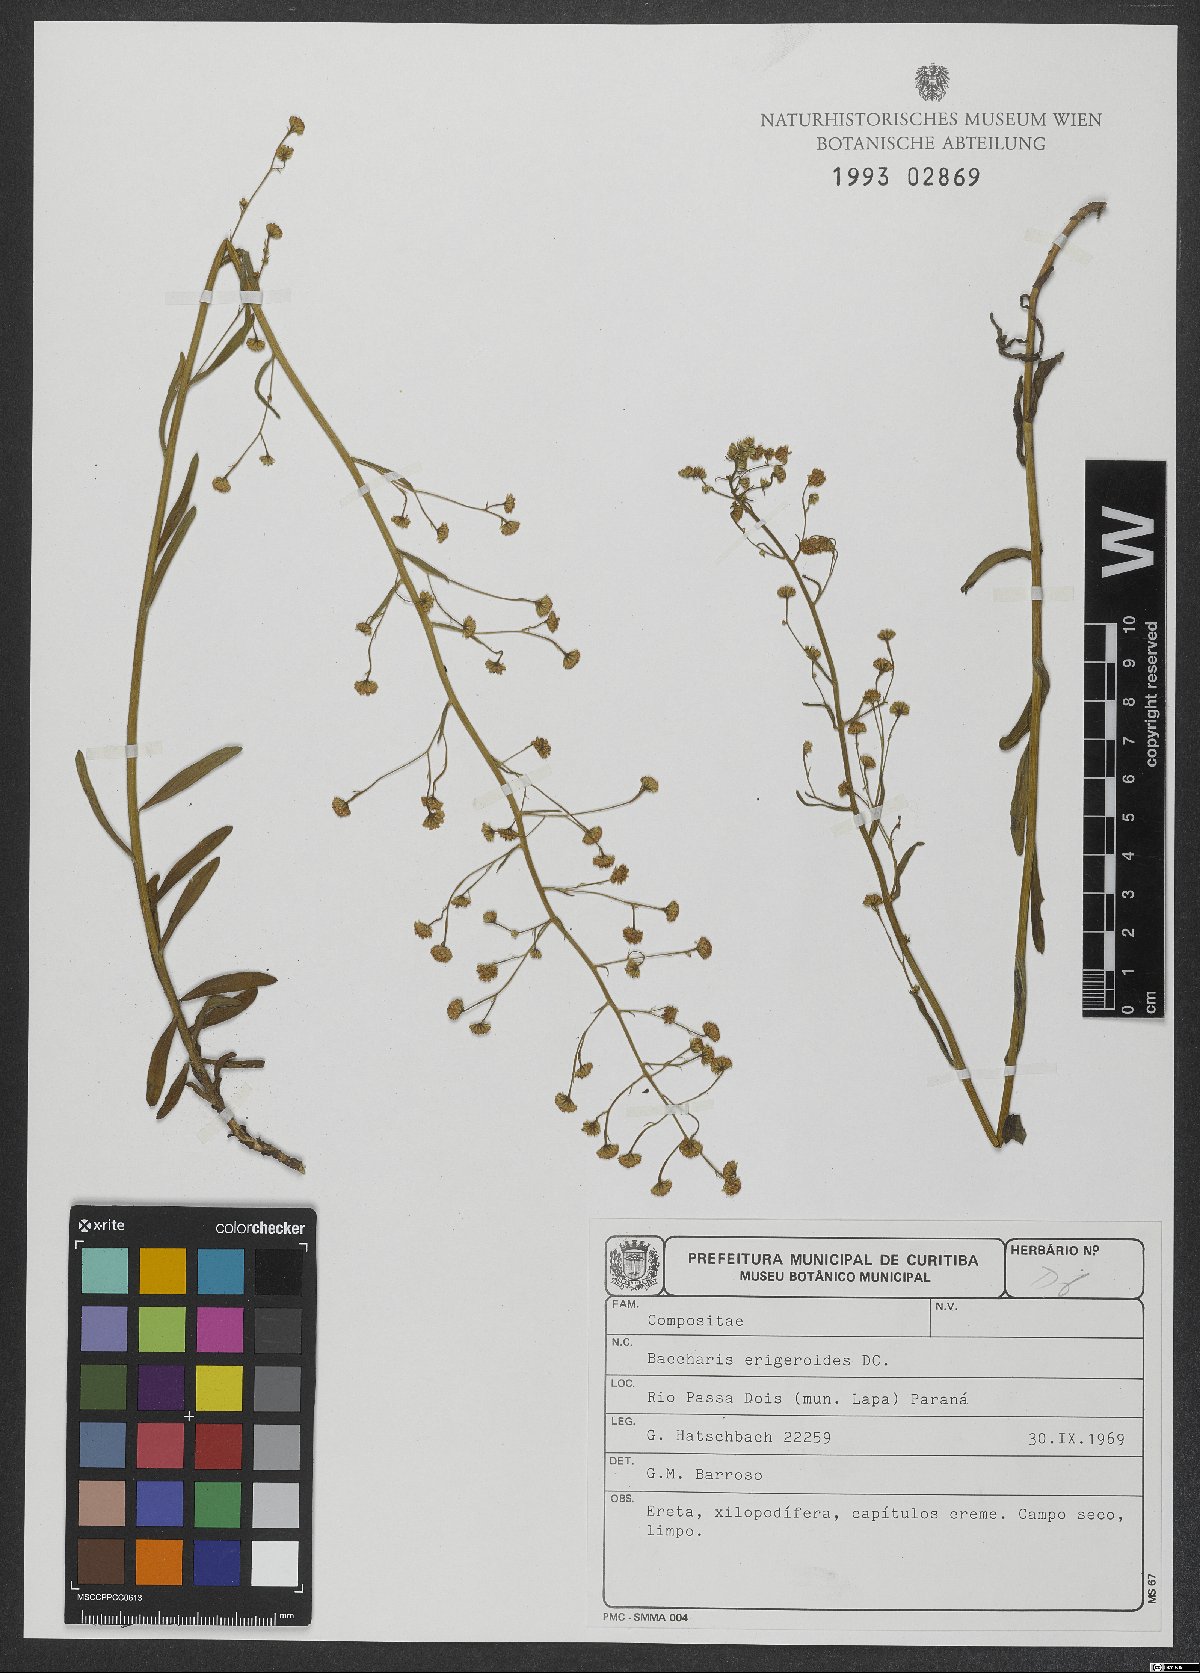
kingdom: Plantae
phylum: Tracheophyta
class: Magnoliopsida
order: Asterales
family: Asteraceae
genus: Baccharis
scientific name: Baccharis erigeroides
